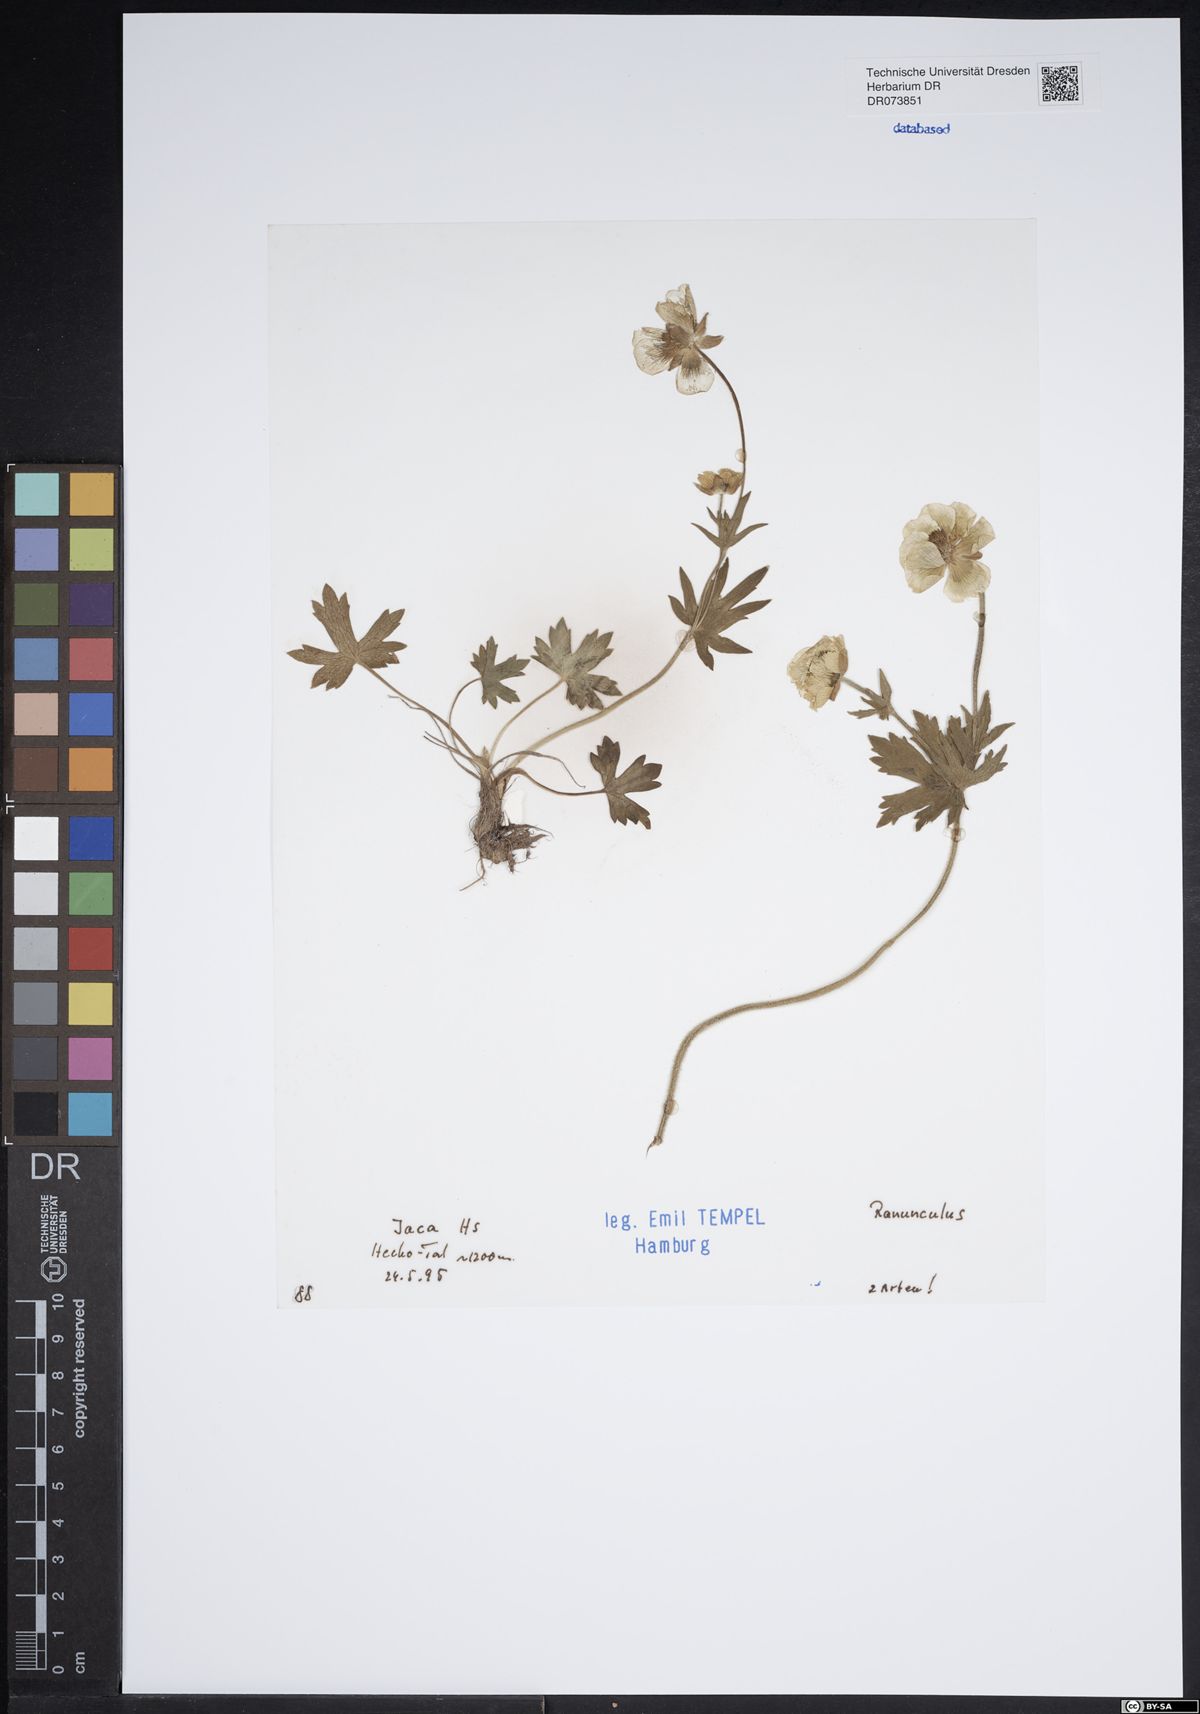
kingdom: Plantae
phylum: Tracheophyta
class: Magnoliopsida
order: Ranunculales
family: Ranunculaceae
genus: Ranunculus
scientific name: Ranunculus
